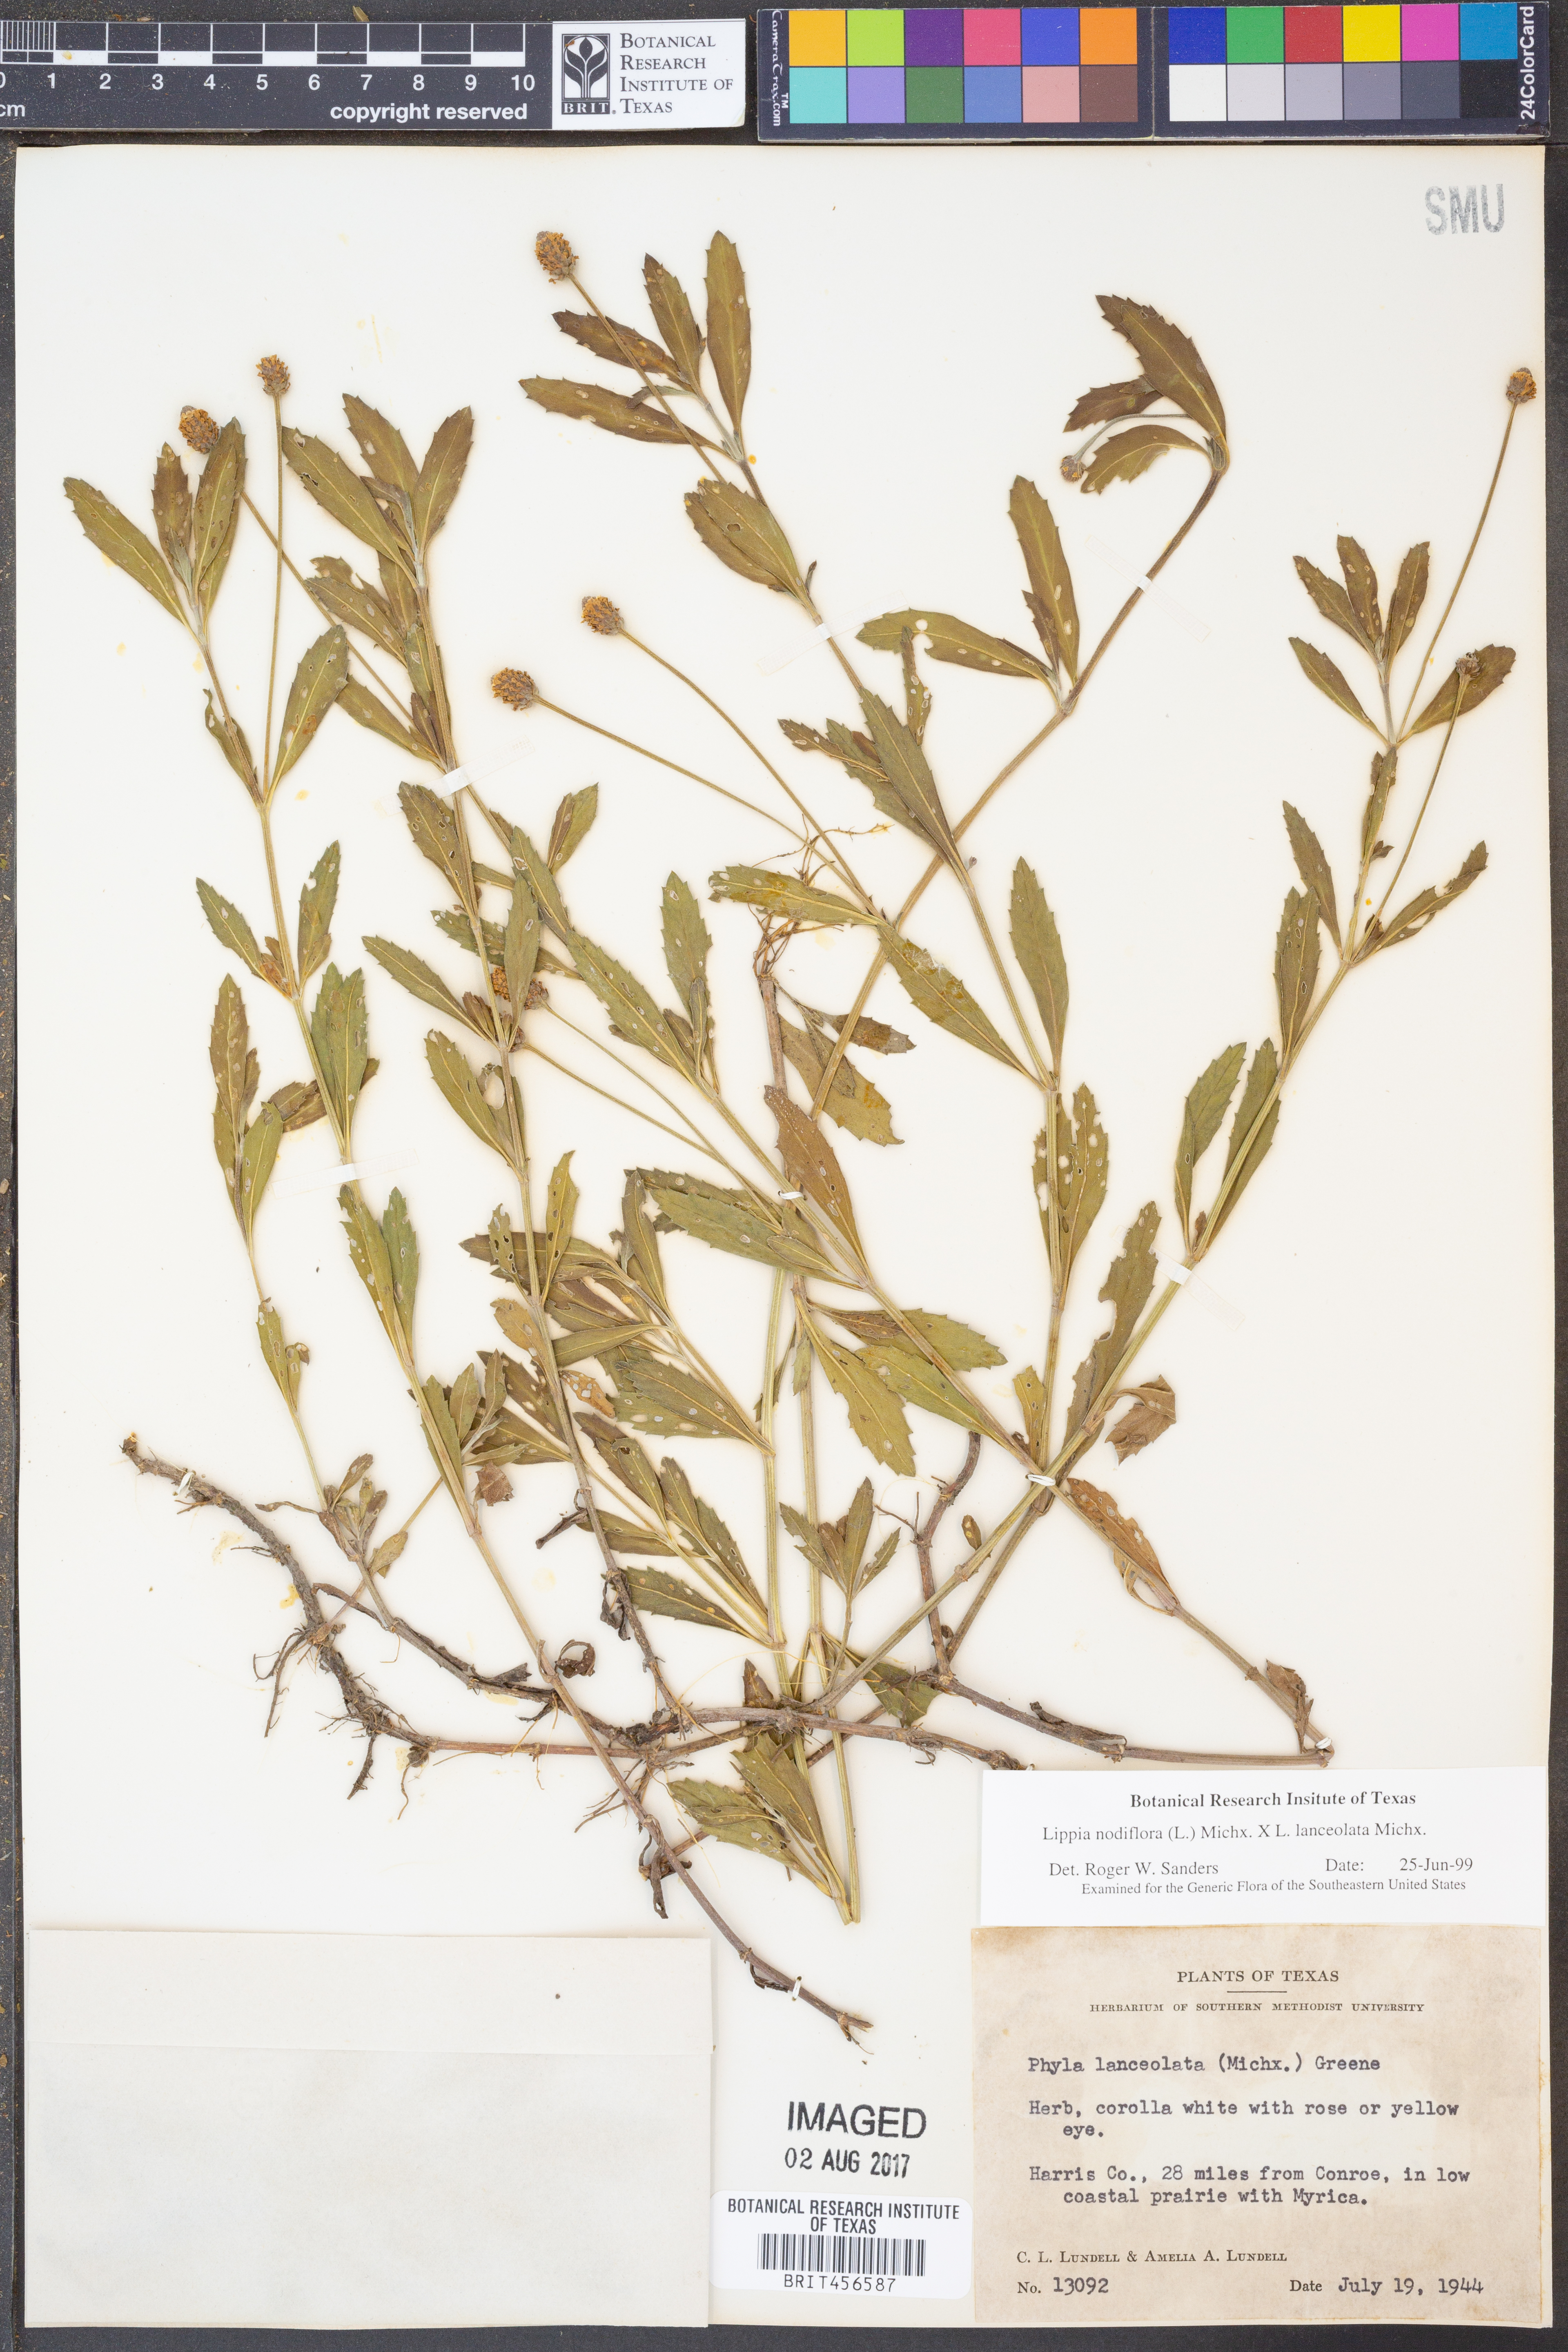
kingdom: Plantae
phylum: Tracheophyta
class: Magnoliopsida
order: Lamiales
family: Verbenaceae
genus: Phyla
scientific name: Phyla nodiflora
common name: Frogfruit
